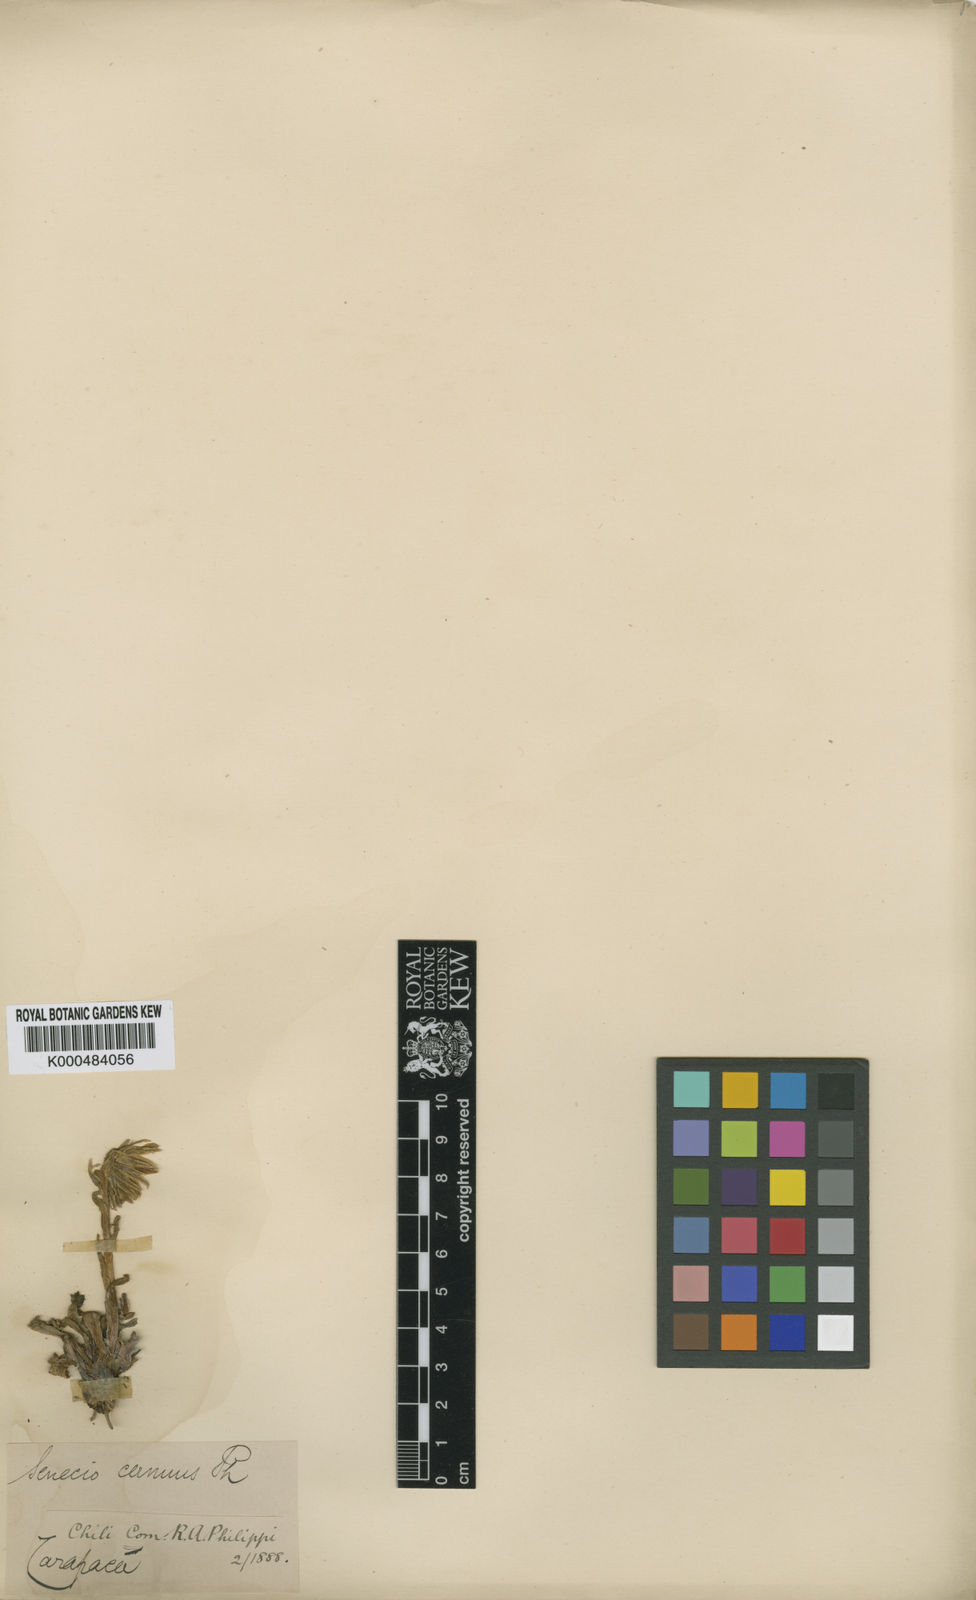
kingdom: Plantae
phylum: Tracheophyta
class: Magnoliopsida
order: Asterales
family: Asteraceae
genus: Senecio
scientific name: Senecio serratifolius
